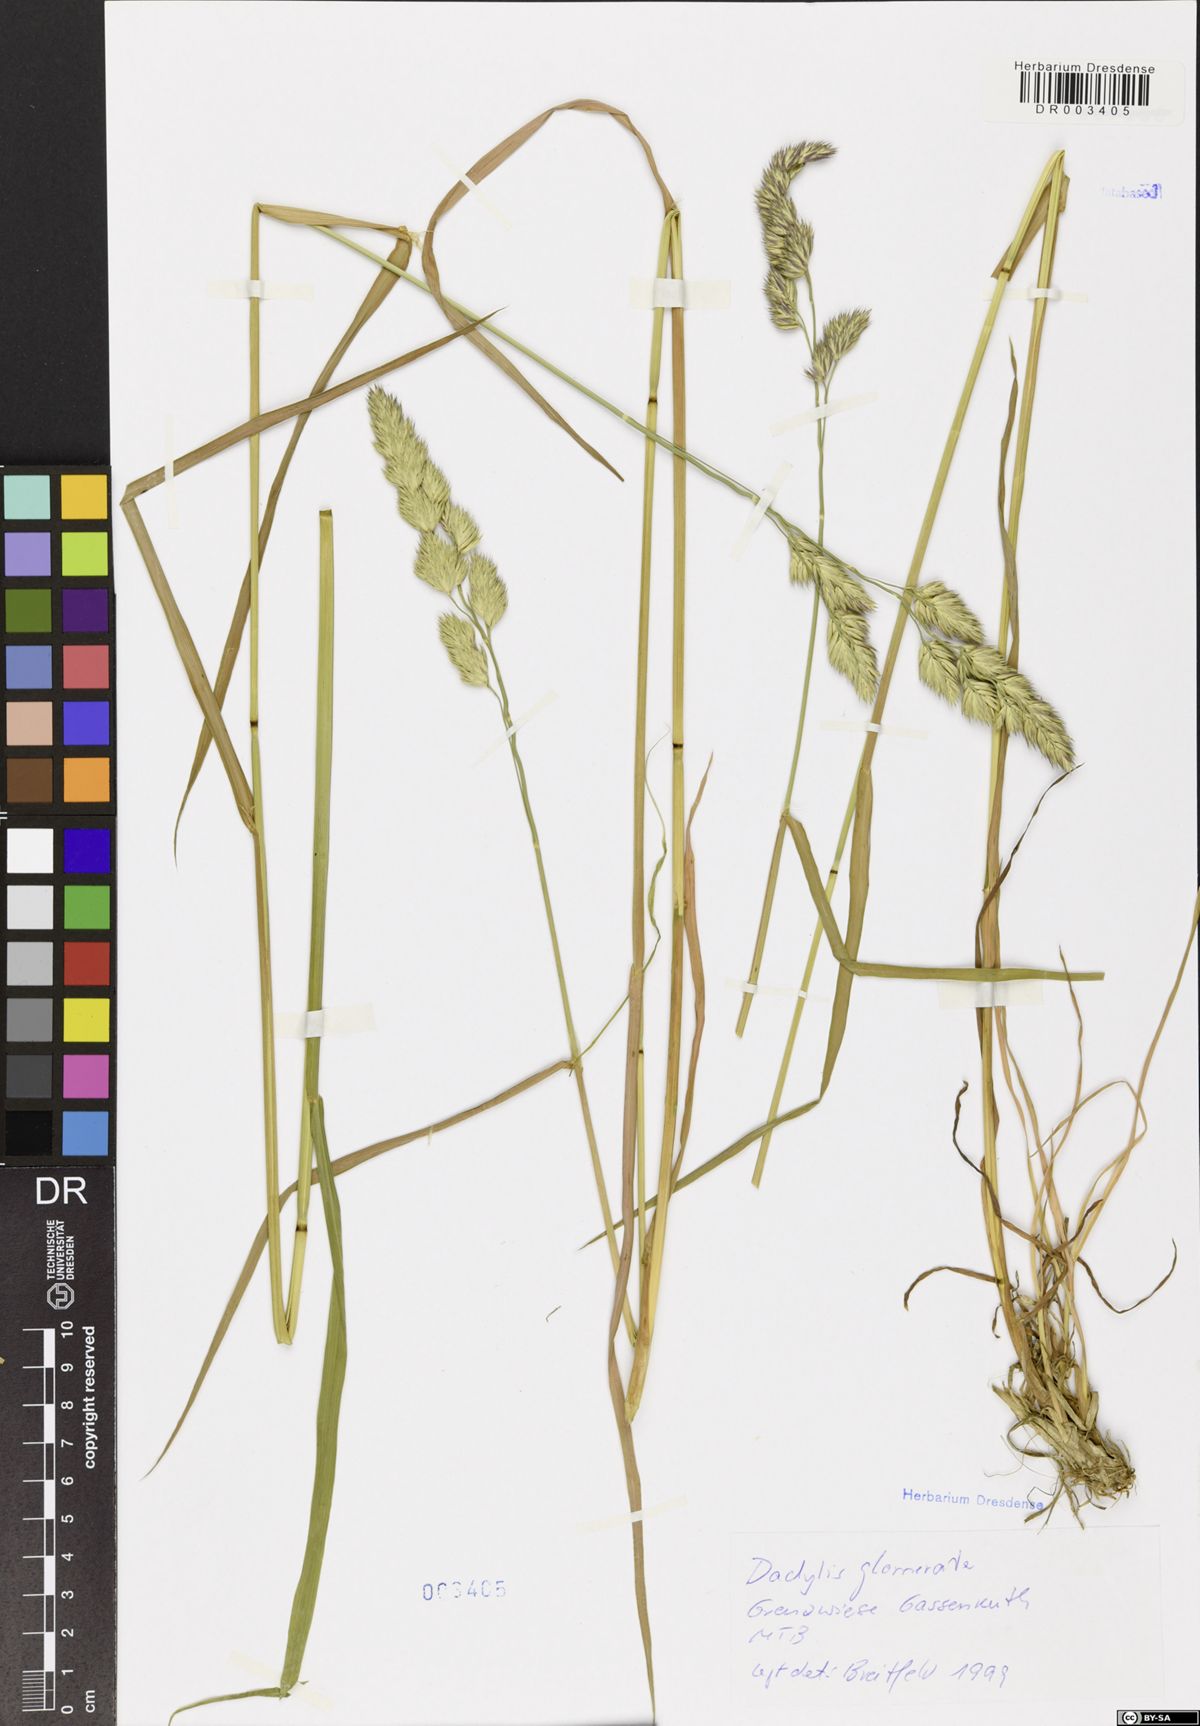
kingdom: Plantae
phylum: Tracheophyta
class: Liliopsida
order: Poales
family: Poaceae
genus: Dactylis
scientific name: Dactylis glomerata
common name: Orchardgrass
